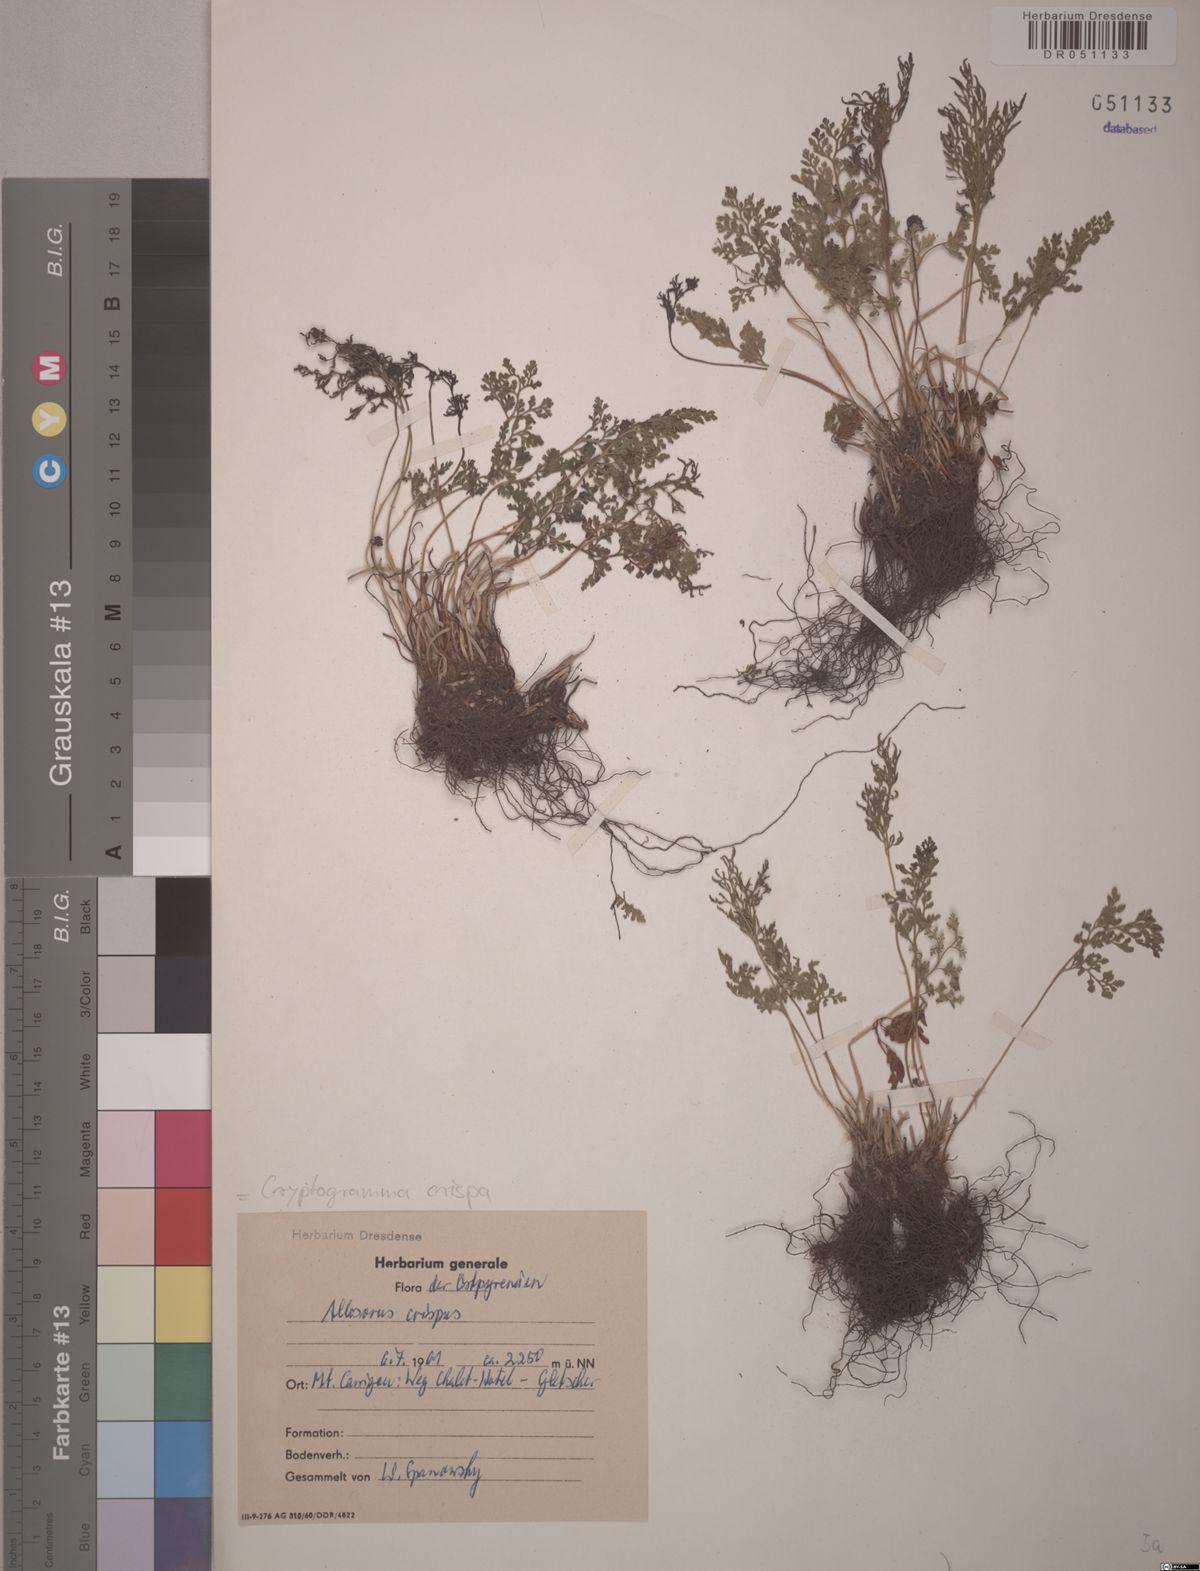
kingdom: Plantae
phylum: Tracheophyta
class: Polypodiopsida
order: Polypodiales
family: Pteridaceae
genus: Cryptogramma
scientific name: Cryptogramma crispa
